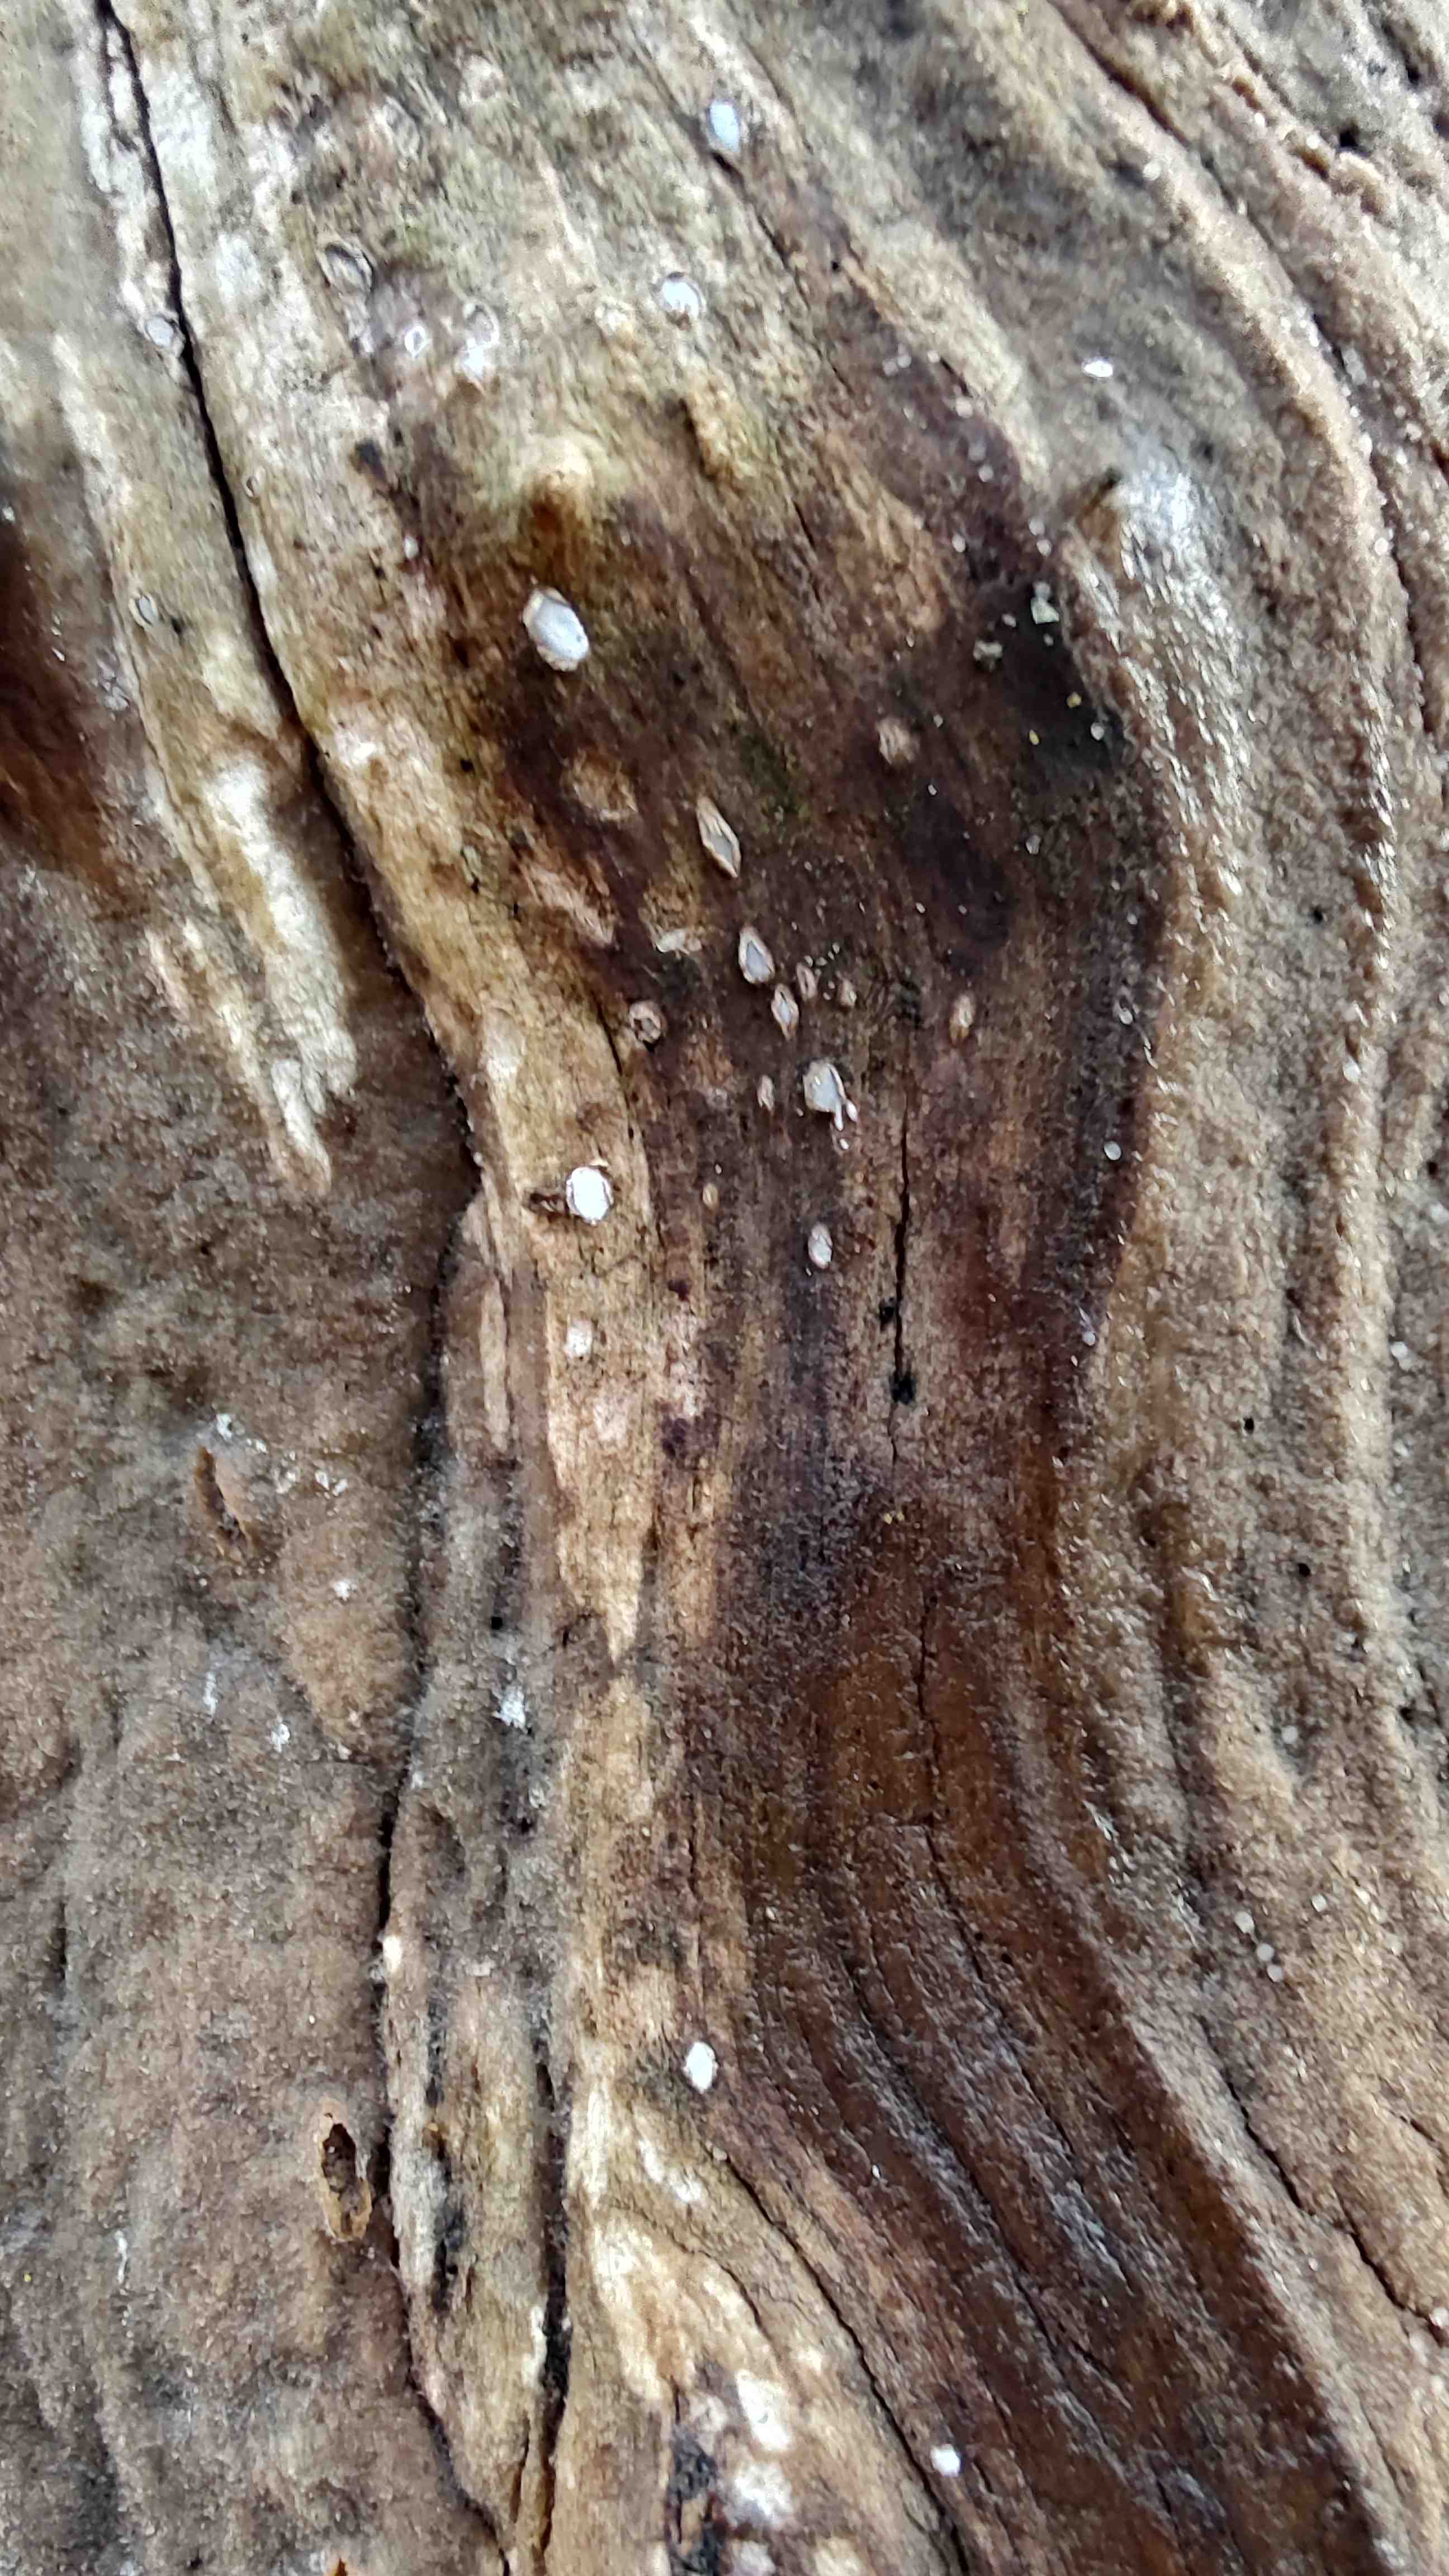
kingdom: Fungi
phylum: Ascomycota
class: Leotiomycetes
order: Chaetomellales
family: Marthamycetaceae
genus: Propolis
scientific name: Propolis farinosa
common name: almindelig vedsprængerskive
